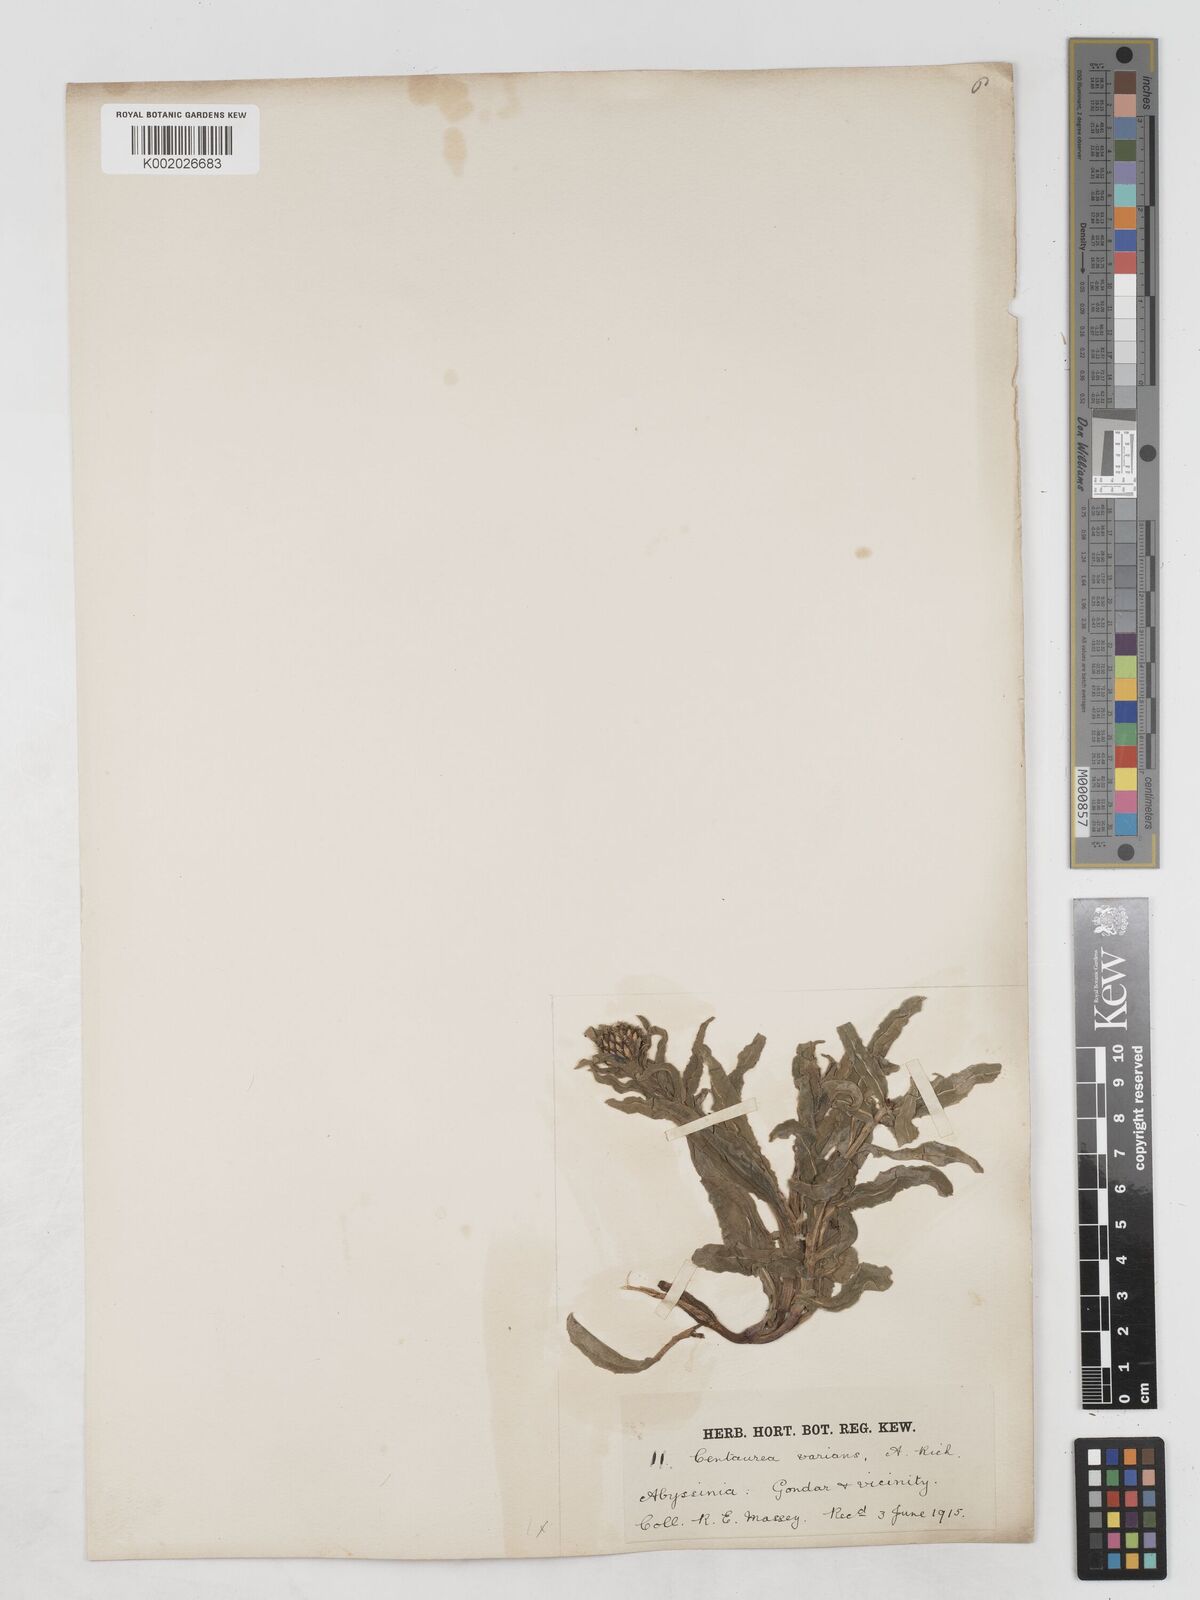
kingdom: Plantae
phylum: Tracheophyta
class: Magnoliopsida
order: Asterales
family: Asteraceae
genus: Plectocephalus
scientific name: Plectocephalus varians
